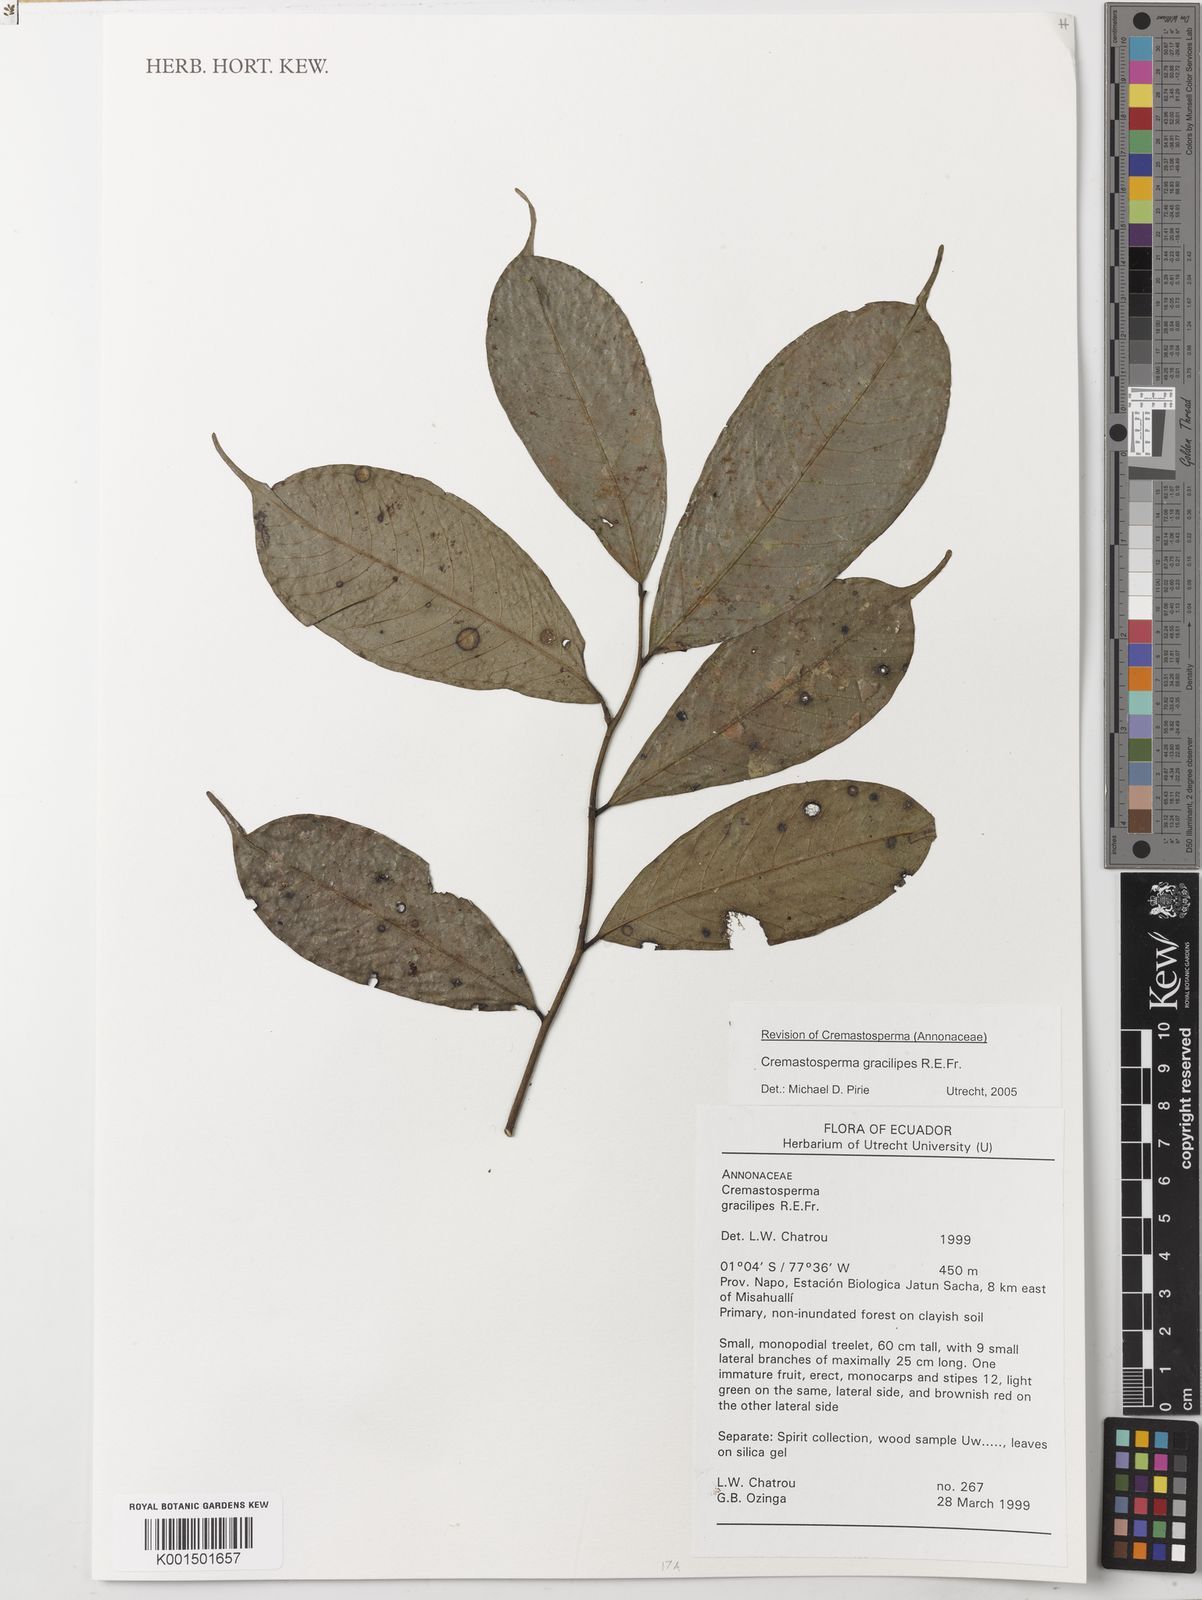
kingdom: Plantae
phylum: Tracheophyta
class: Magnoliopsida
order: Magnoliales
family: Annonaceae
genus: Cremastosperma
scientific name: Cremastosperma gracilipes
